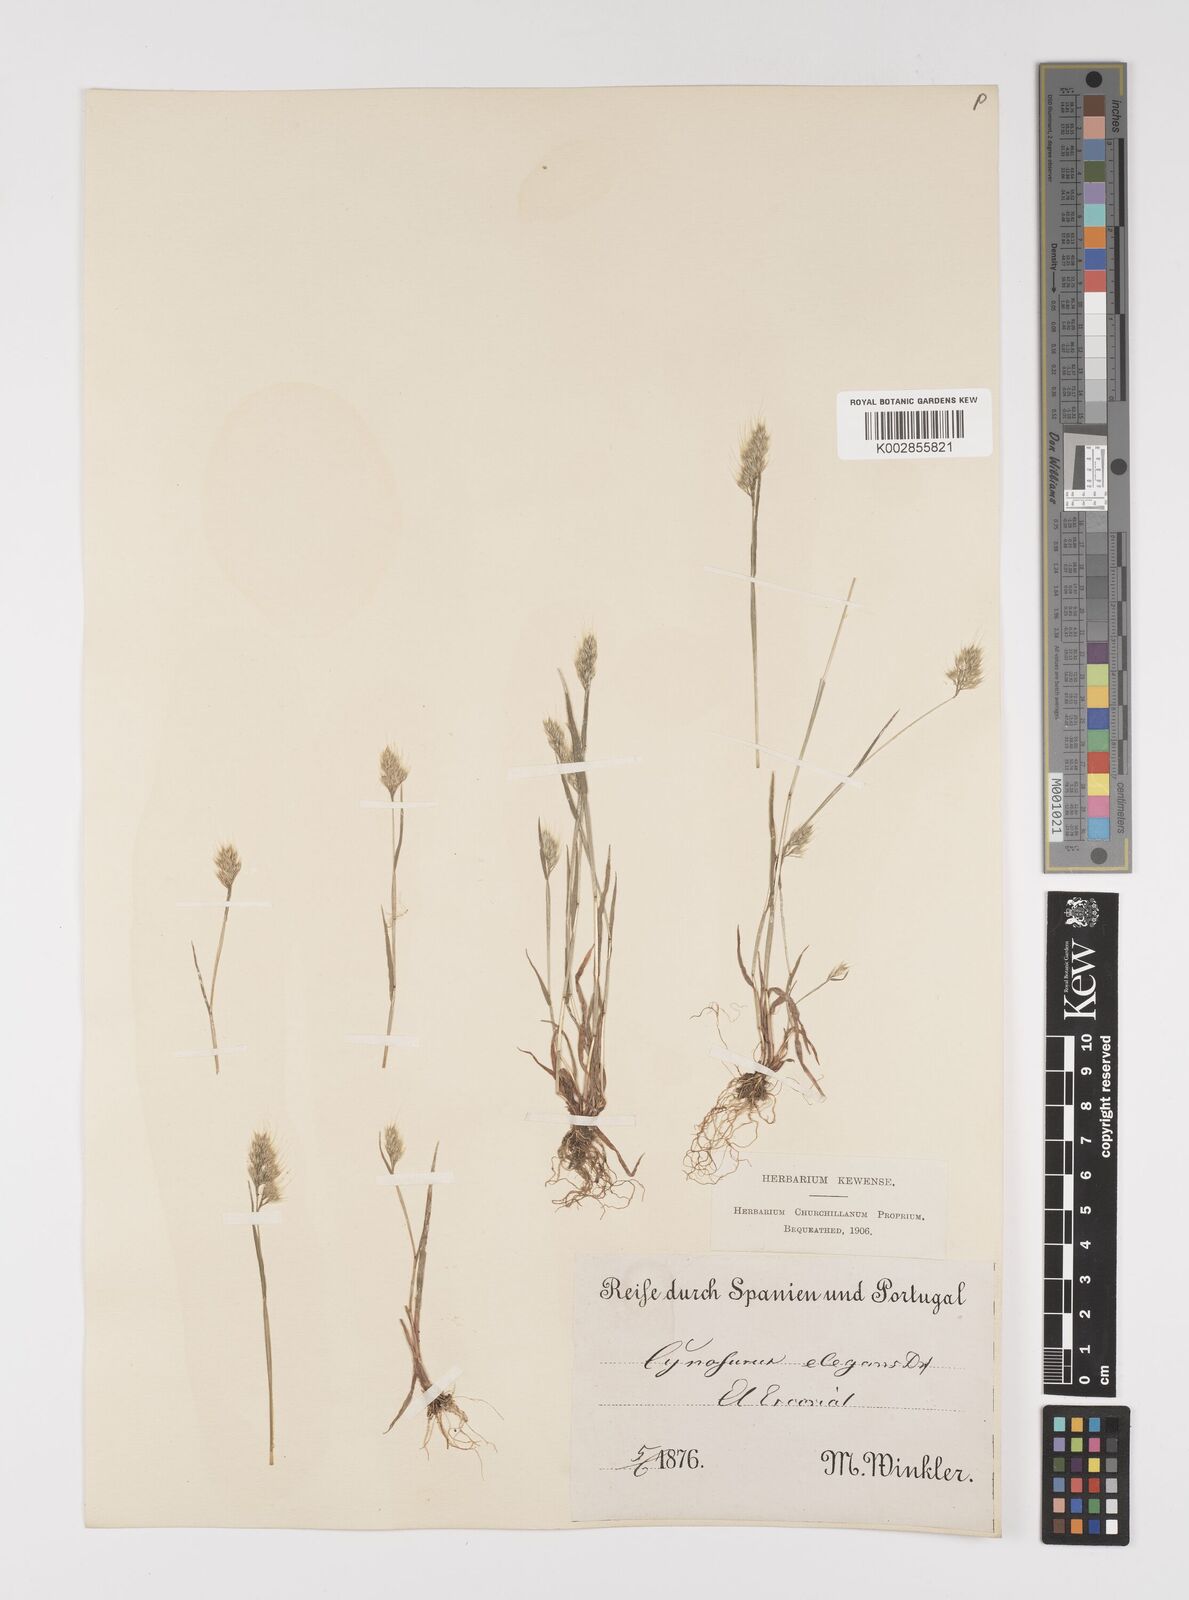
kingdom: Plantae
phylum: Tracheophyta
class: Liliopsida
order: Poales
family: Poaceae
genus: Cynosurus
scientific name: Cynosurus elegans
